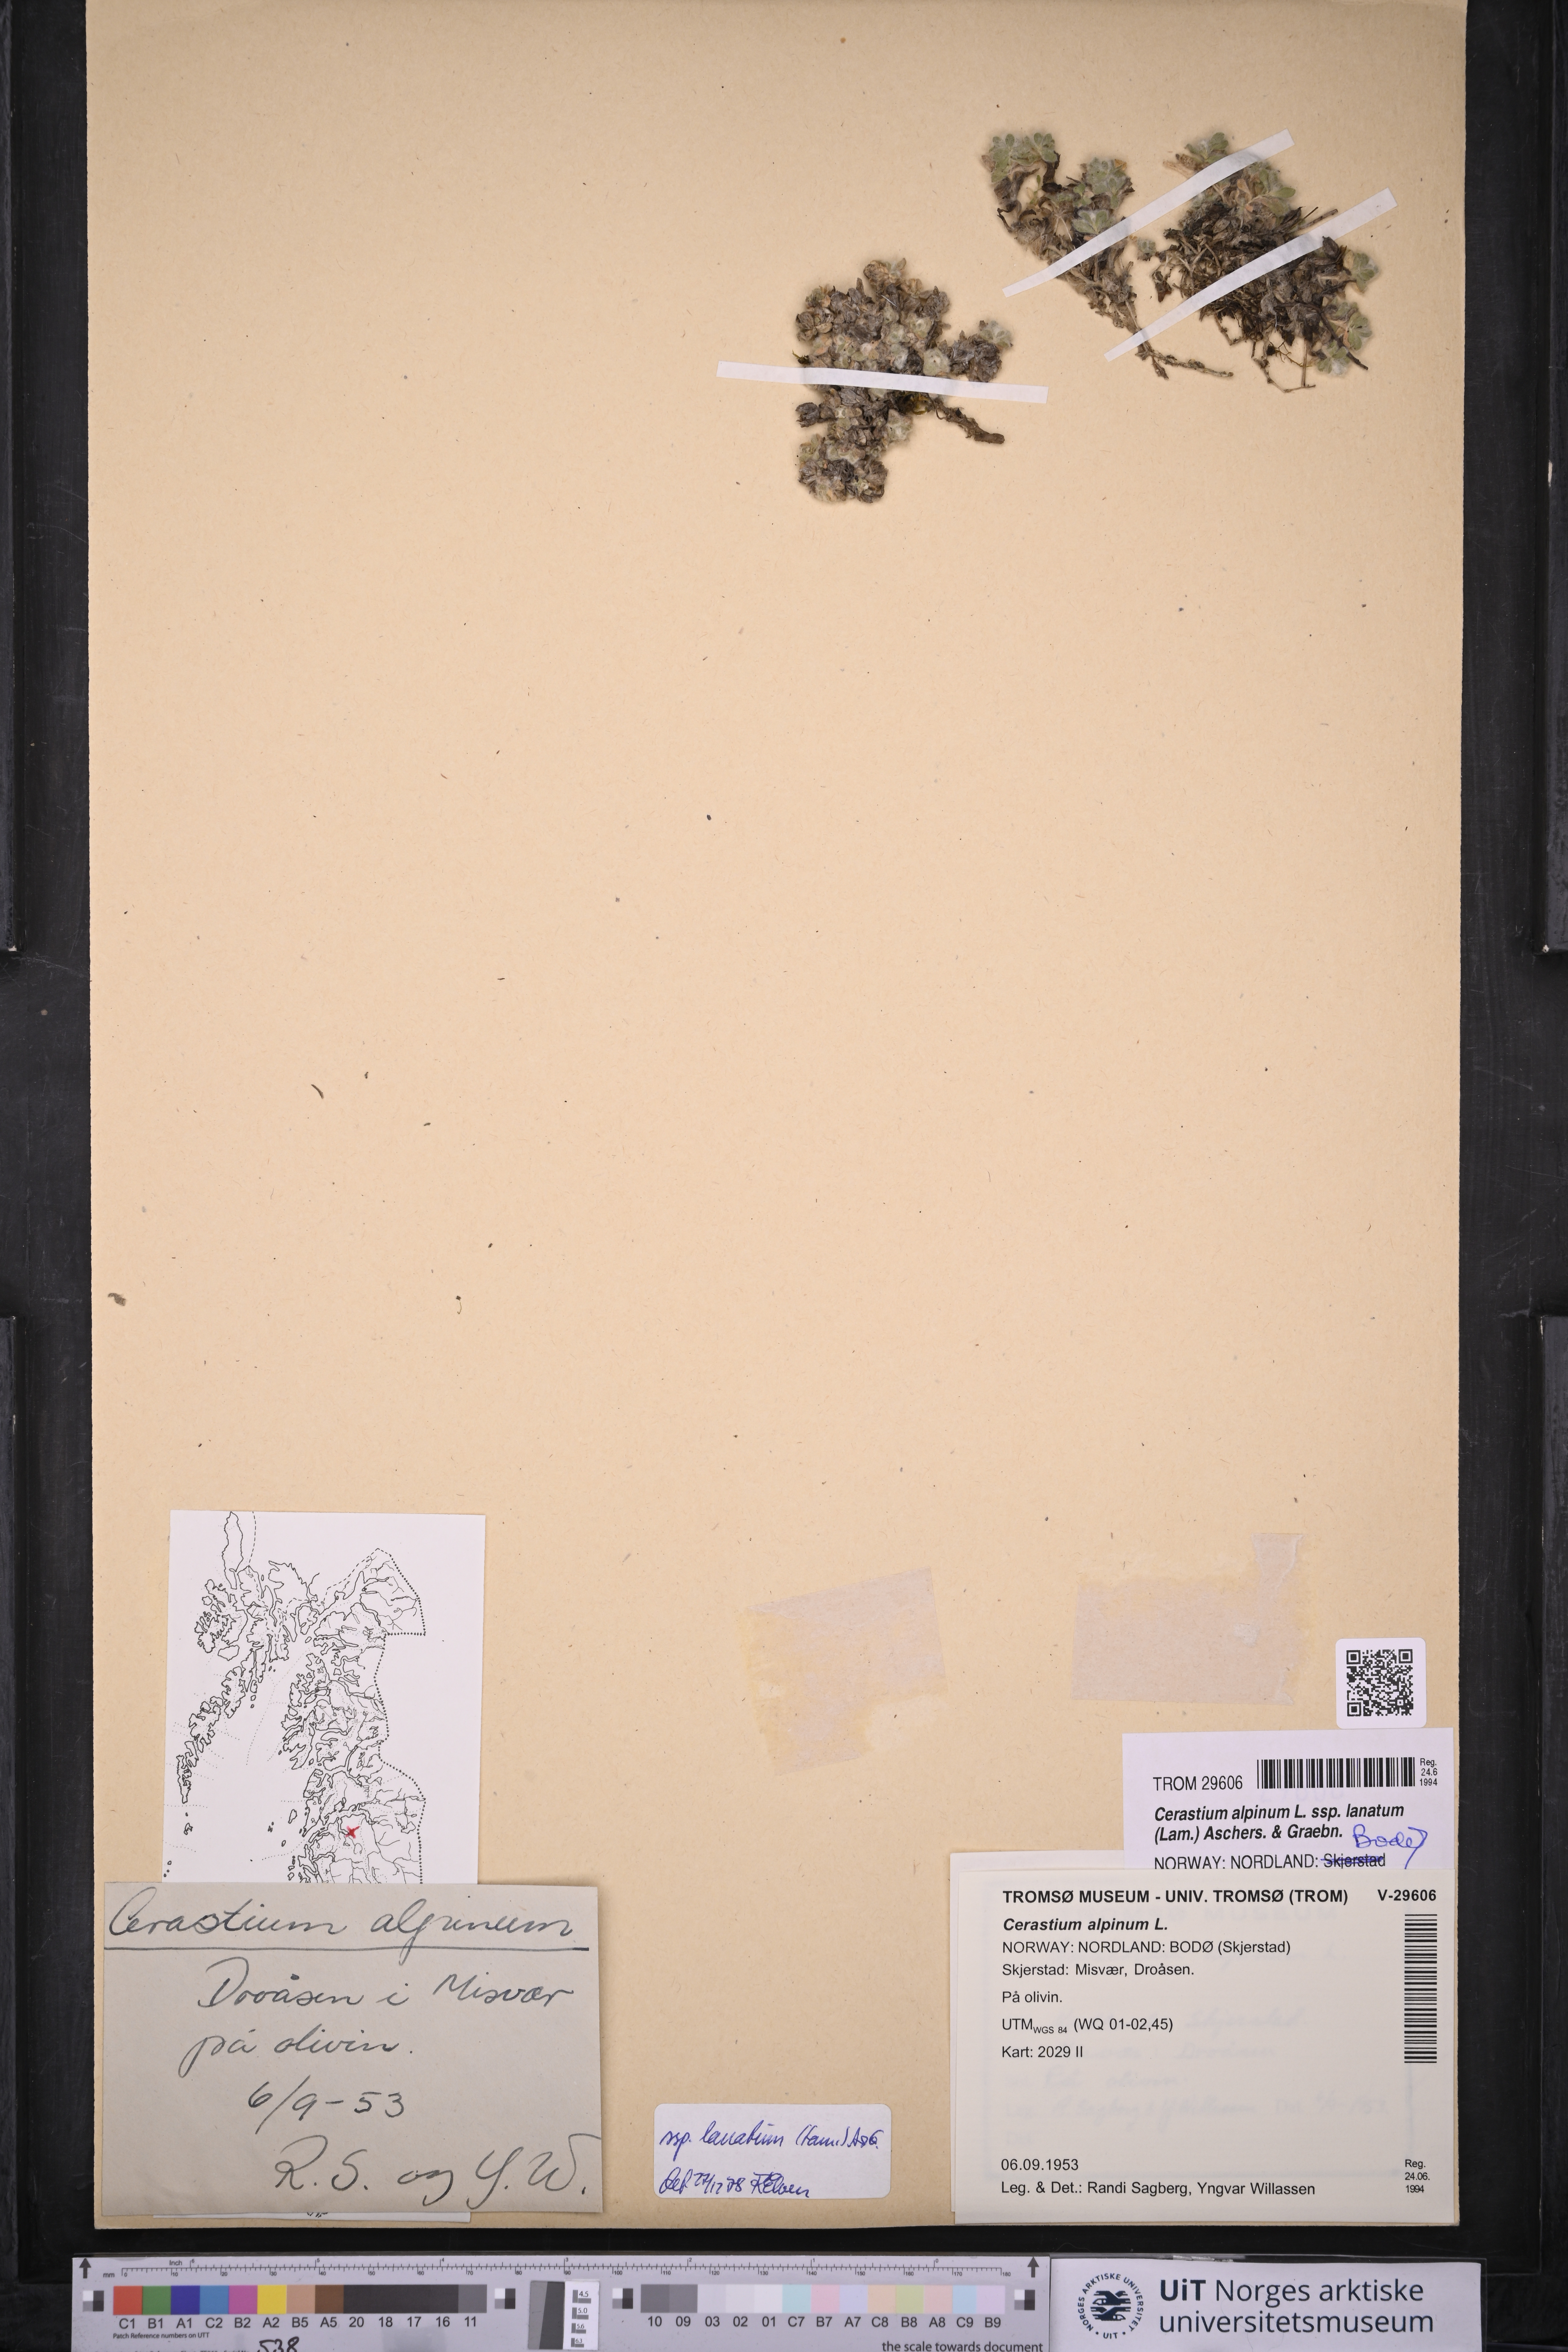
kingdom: Plantae
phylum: Tracheophyta
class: Magnoliopsida
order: Caryophyllales
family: Caryophyllaceae
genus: Cerastium
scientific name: Cerastium alpinum
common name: Alpine mouse-ear
